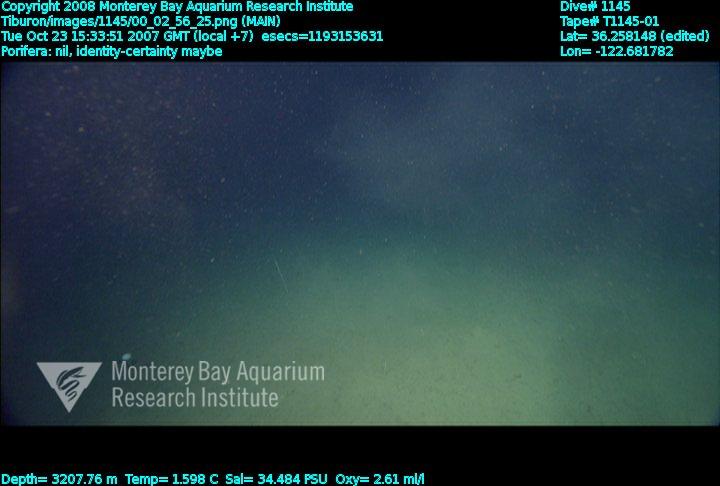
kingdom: Animalia
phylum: Porifera
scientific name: Porifera
